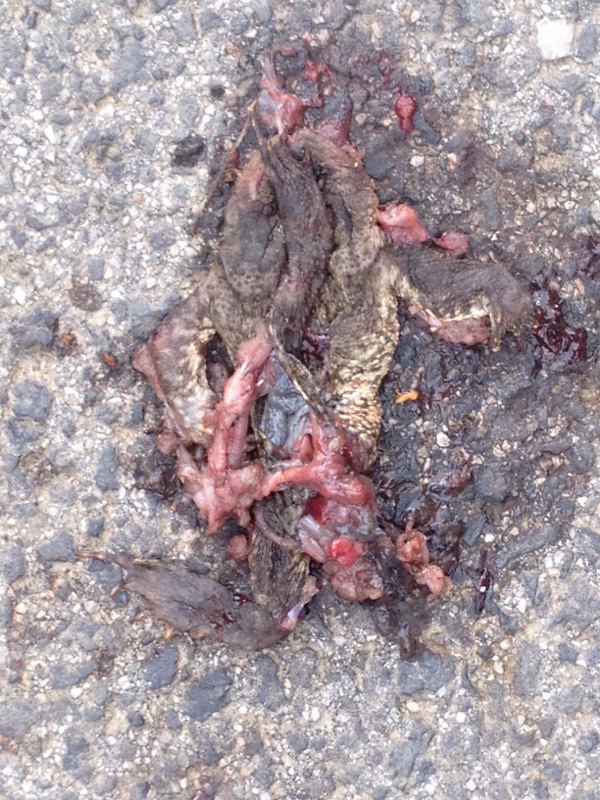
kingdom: Animalia
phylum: Chordata
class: Amphibia
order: Anura
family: Bufonidae
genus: Bufo
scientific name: Bufo bufo
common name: Common toad
